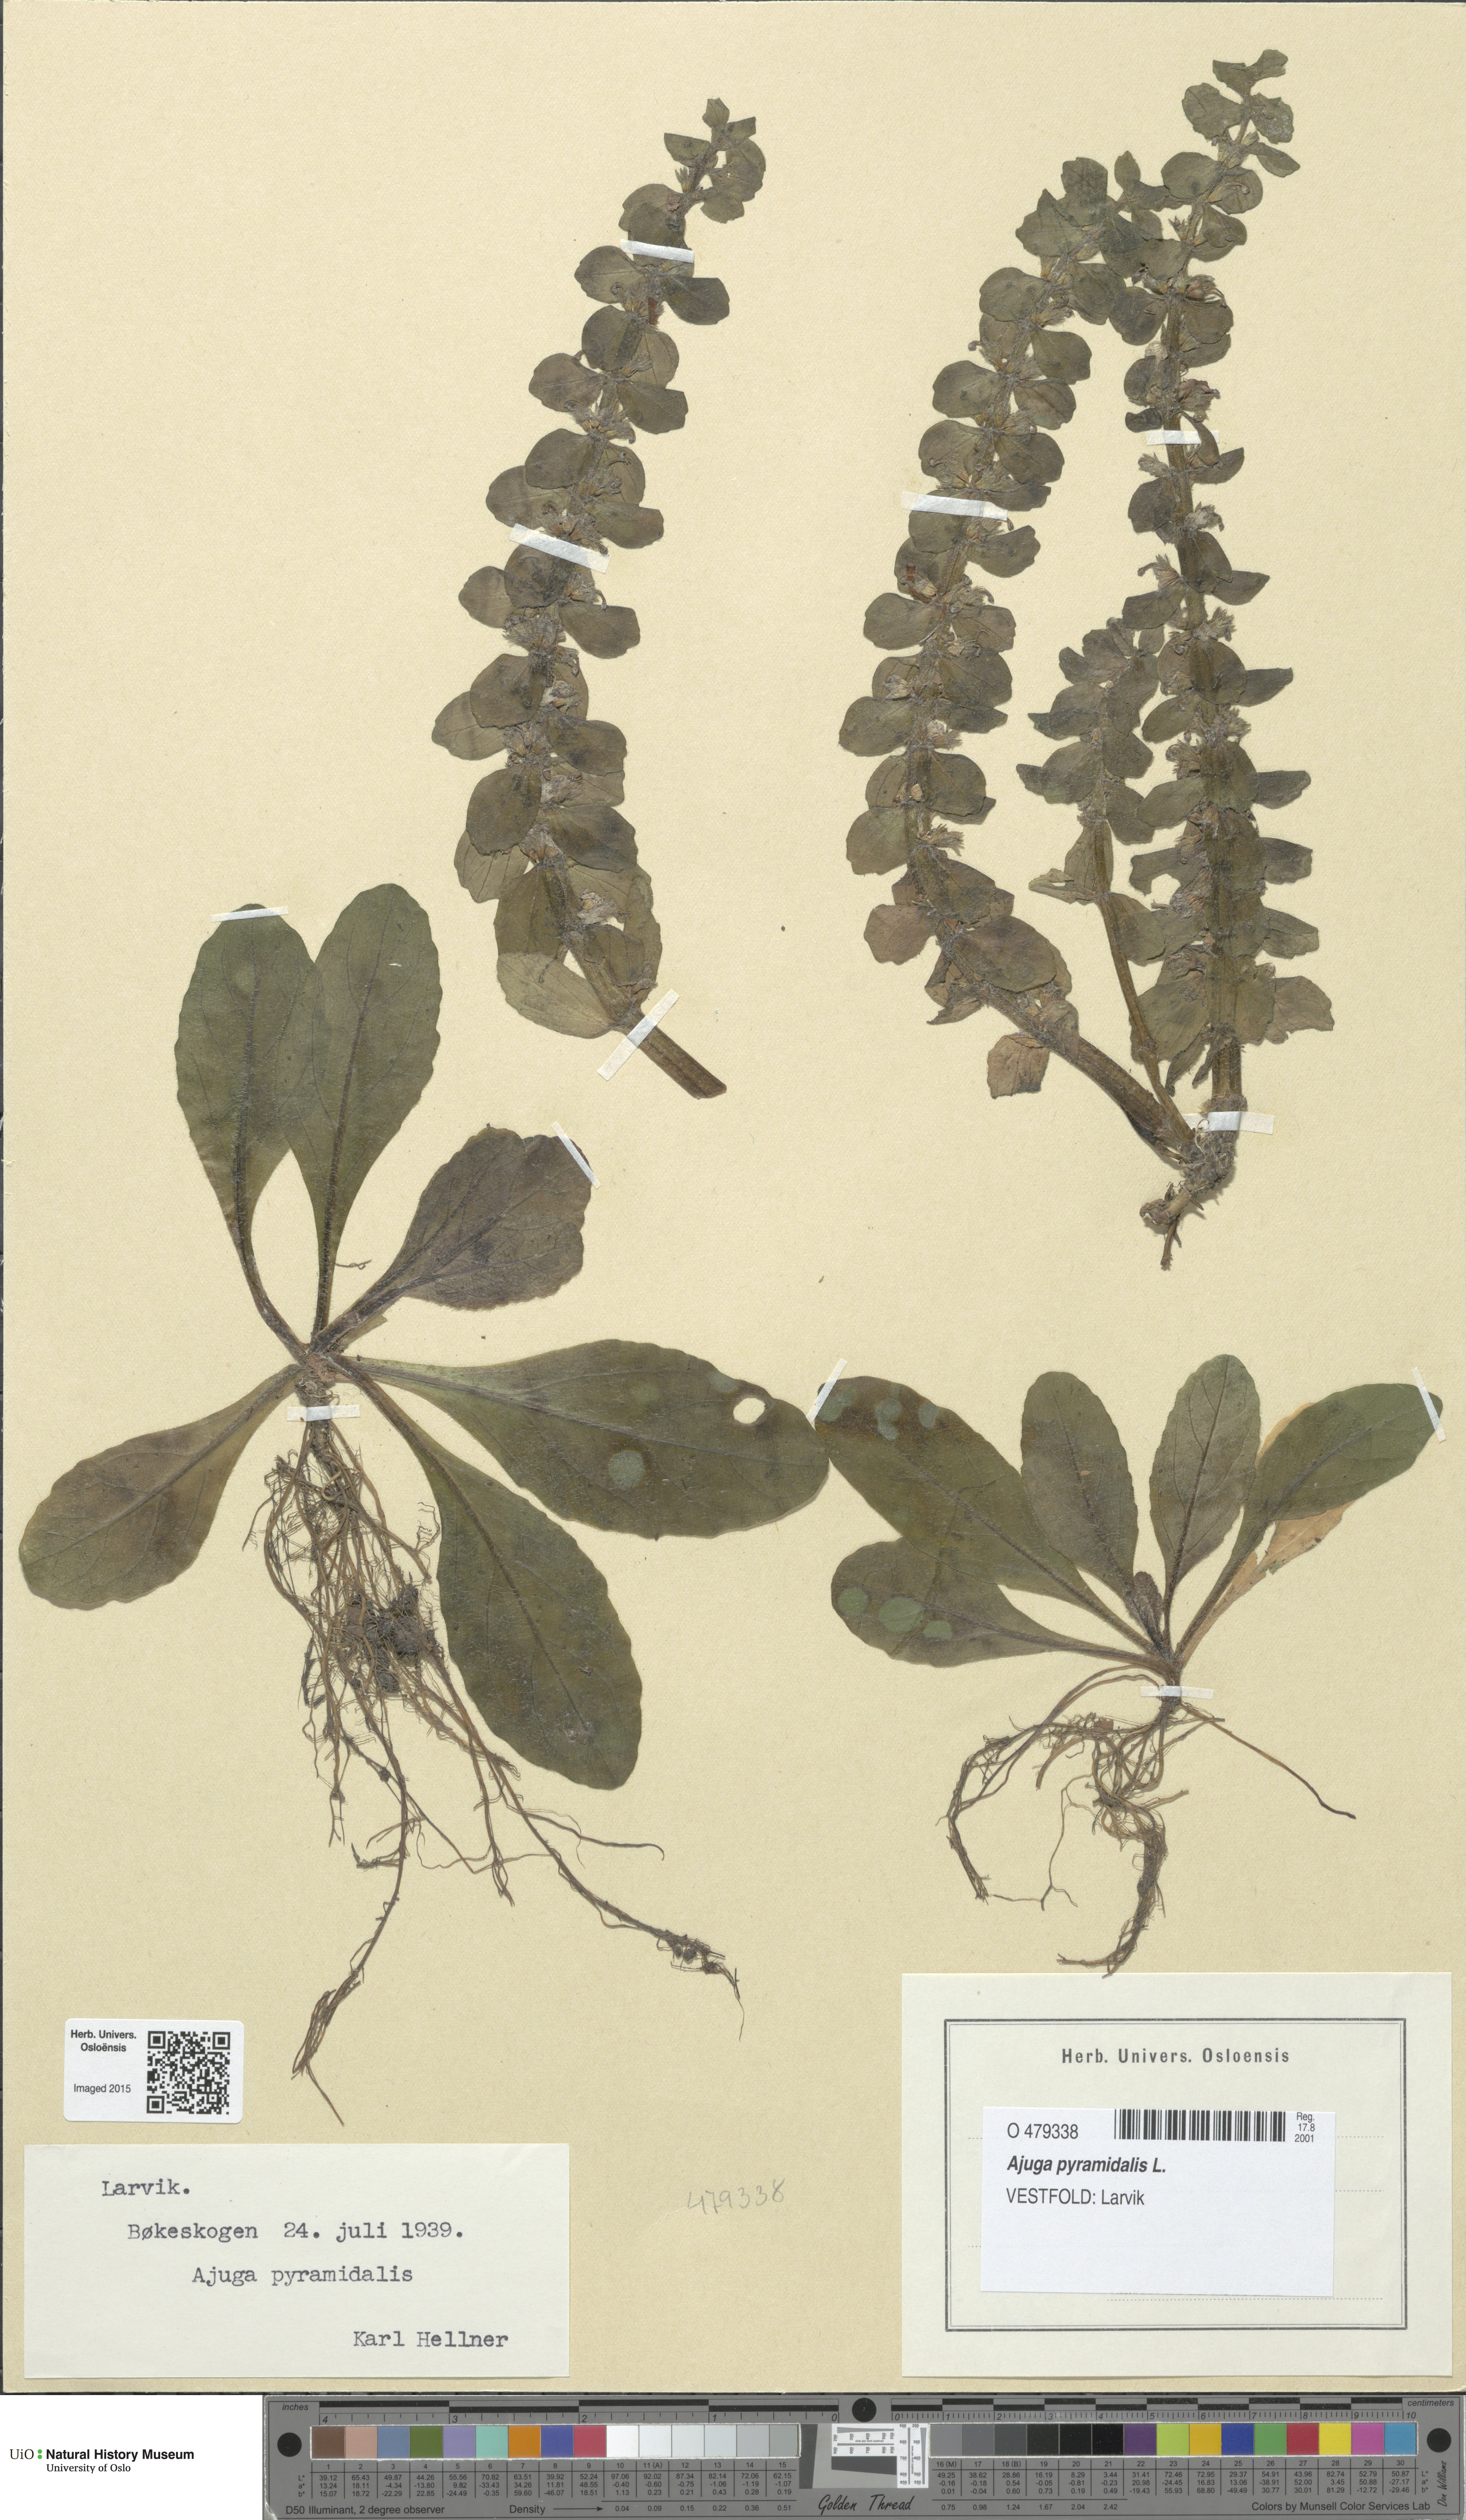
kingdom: Plantae
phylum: Tracheophyta
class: Magnoliopsida
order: Lamiales
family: Lamiaceae
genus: Ajuga
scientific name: Ajuga pyramidalis
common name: Pyramid bugle
